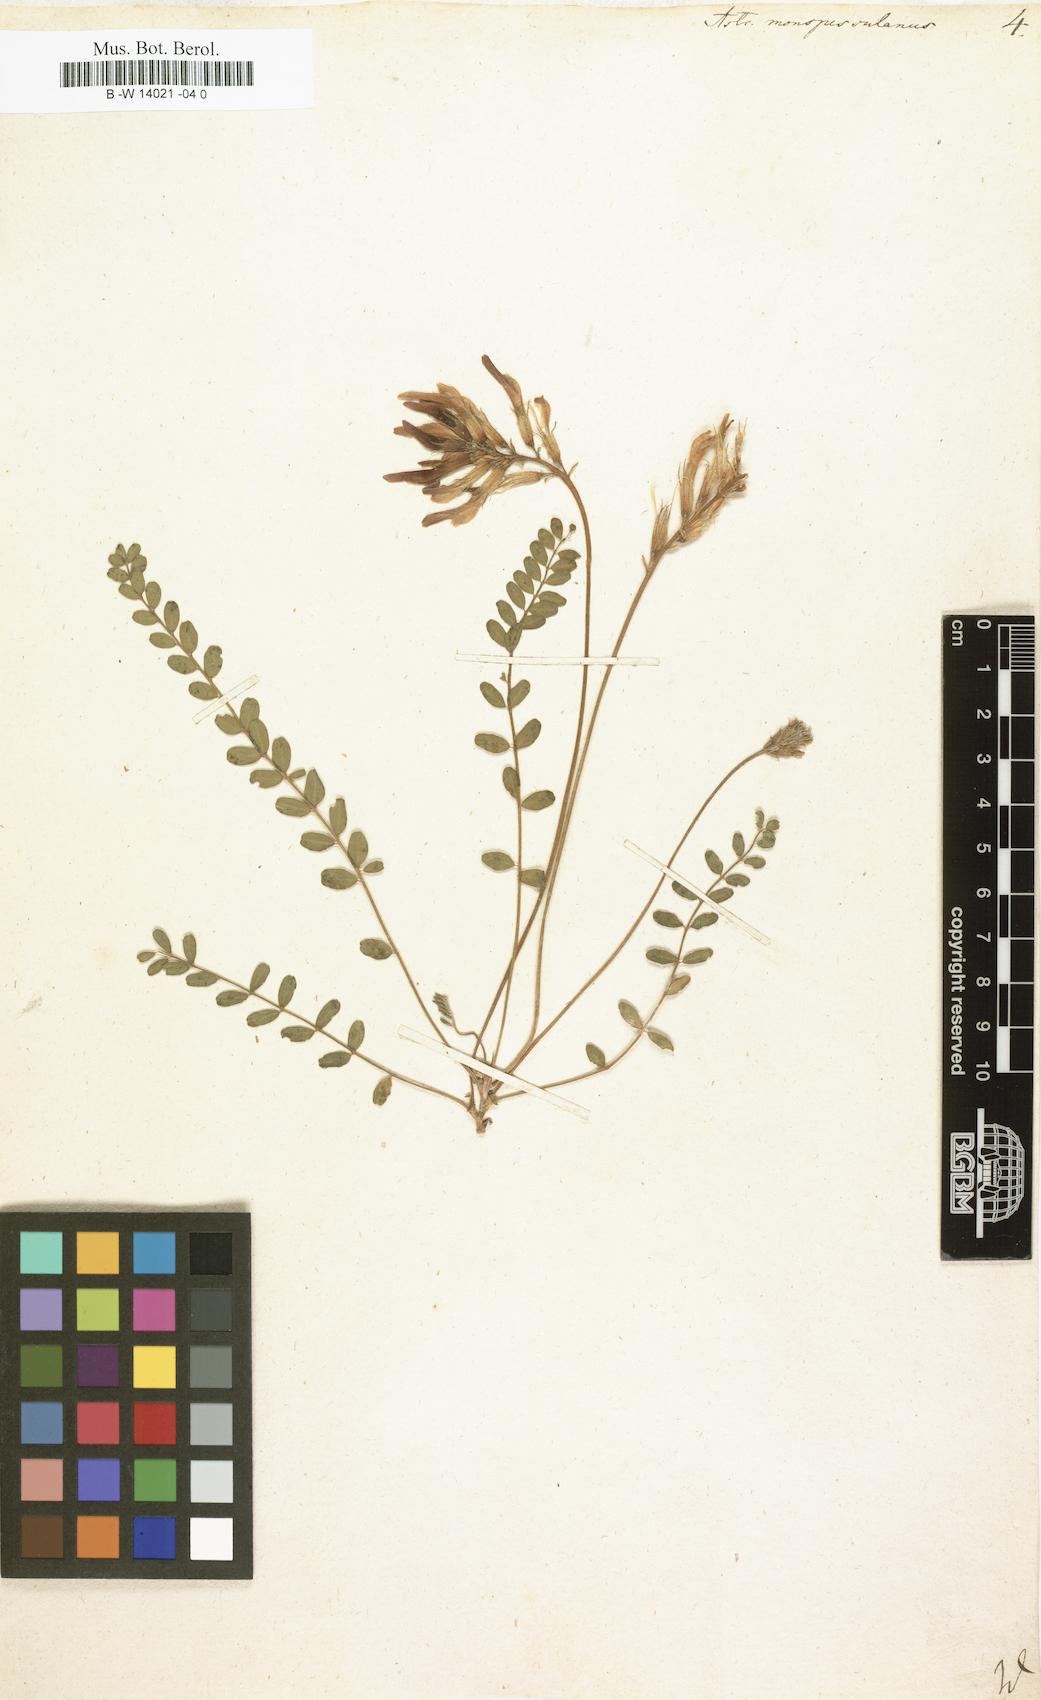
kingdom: Plantae
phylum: Tracheophyta
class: Magnoliopsida
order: Fabales
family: Fabaceae
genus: Astragalus
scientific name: Astragalus monspessulanus
